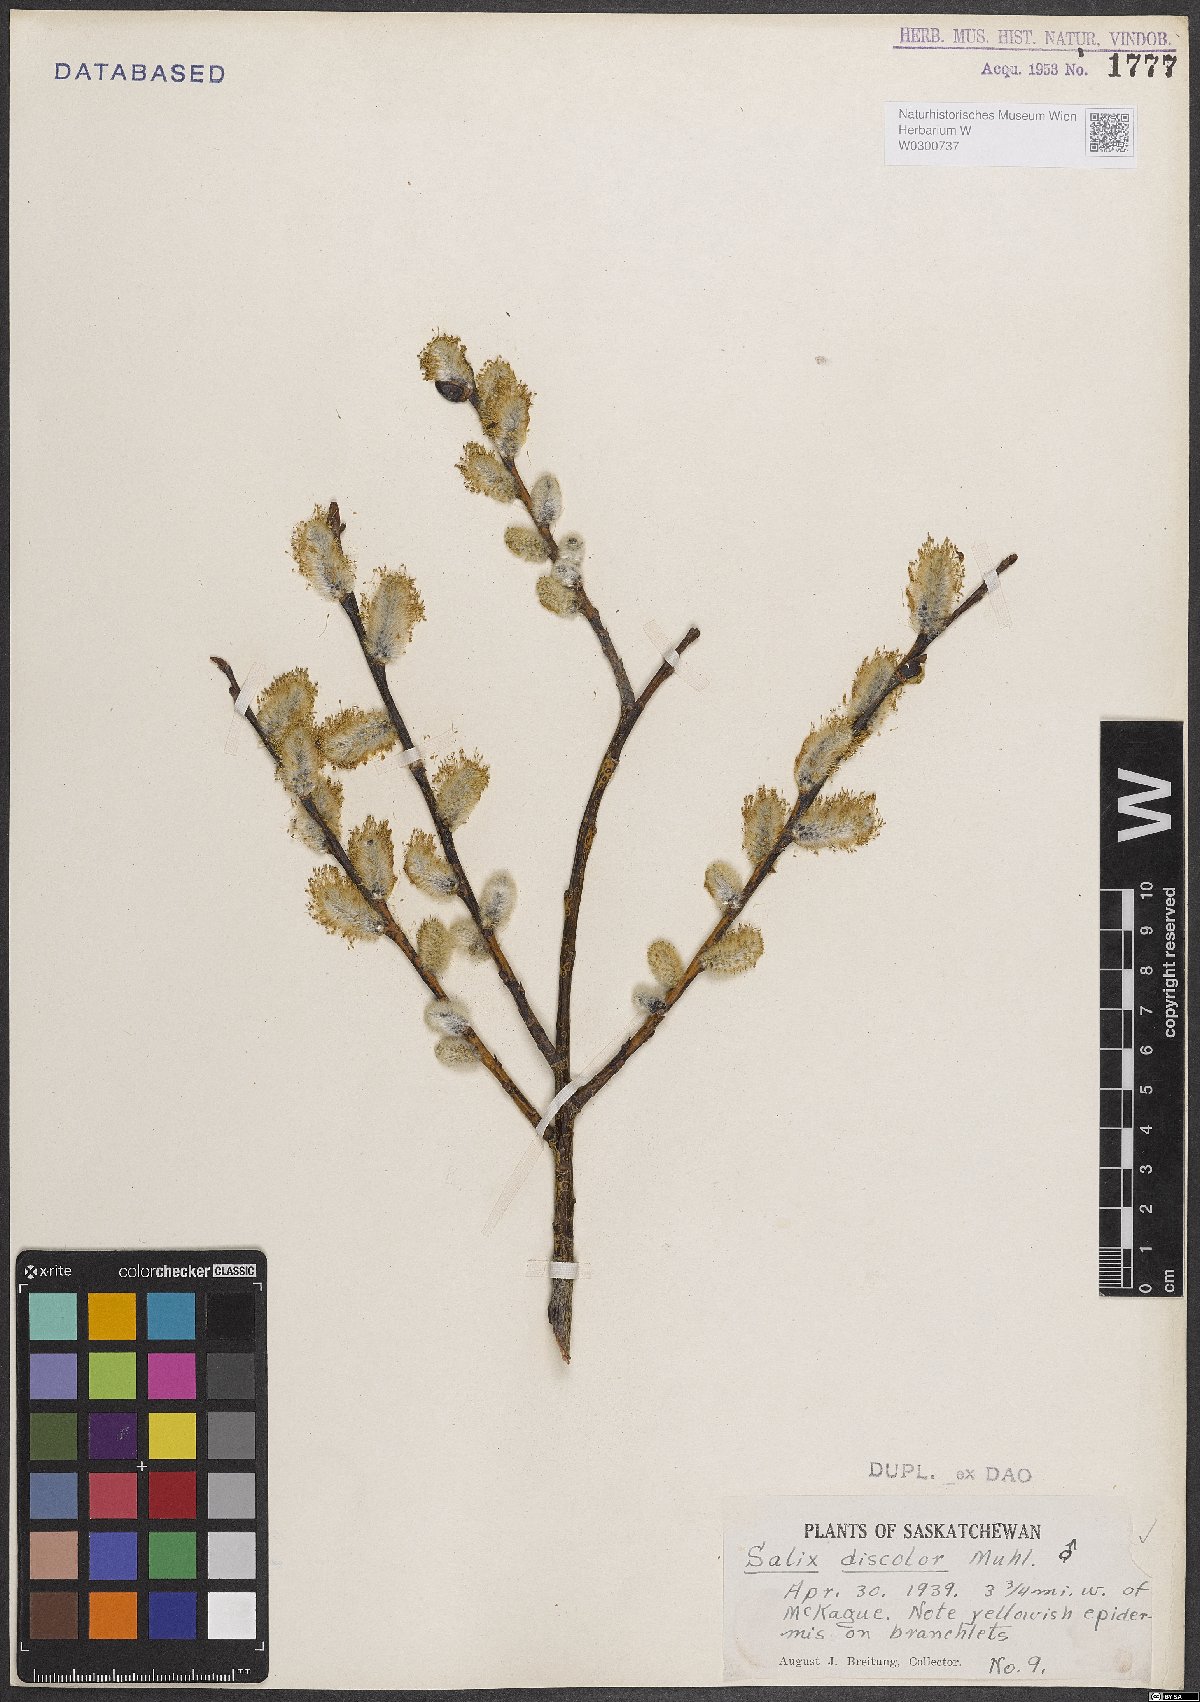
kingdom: Plantae
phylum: Tracheophyta
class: Magnoliopsida
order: Malpighiales
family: Salicaceae
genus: Salix
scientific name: Salix discolor
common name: Glaucous willow
